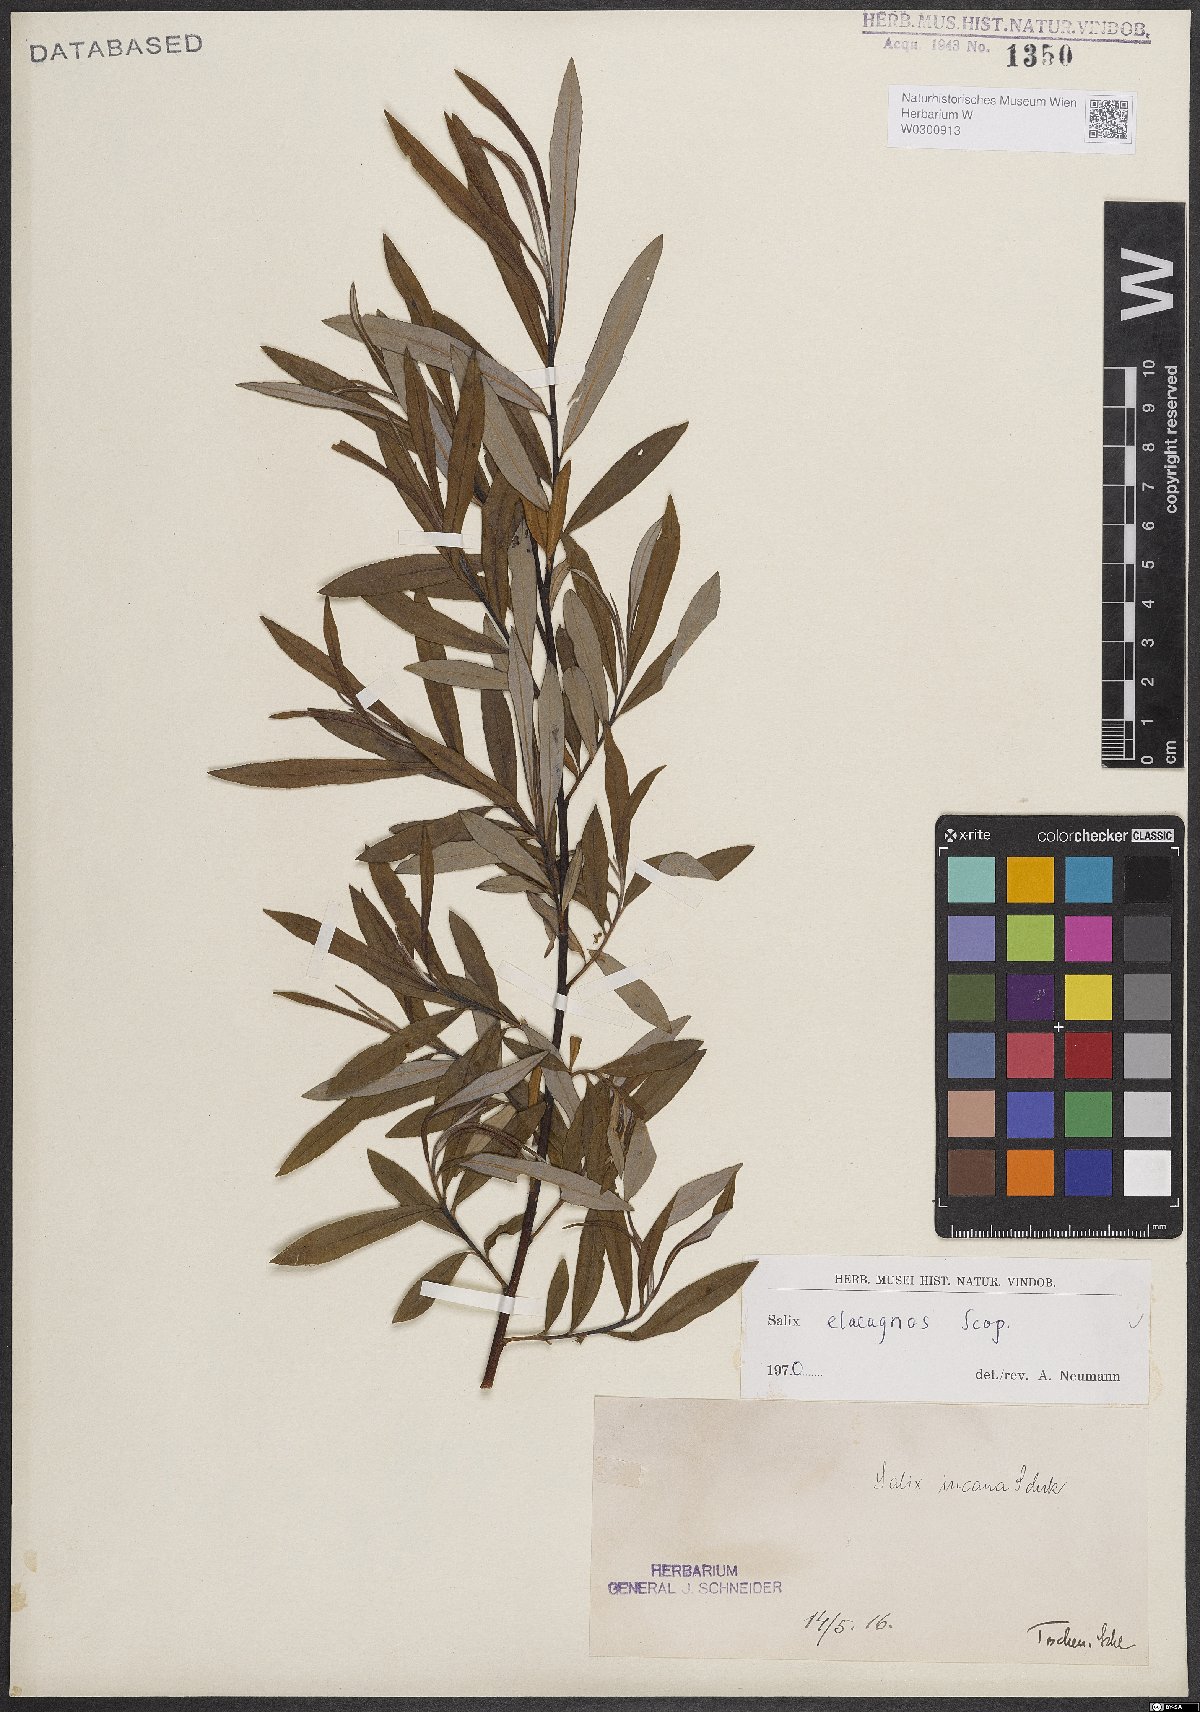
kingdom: Plantae
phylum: Tracheophyta
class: Magnoliopsida
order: Malpighiales
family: Salicaceae
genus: Salix
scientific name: Salix eleagnos
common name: Elaeagnus willow
